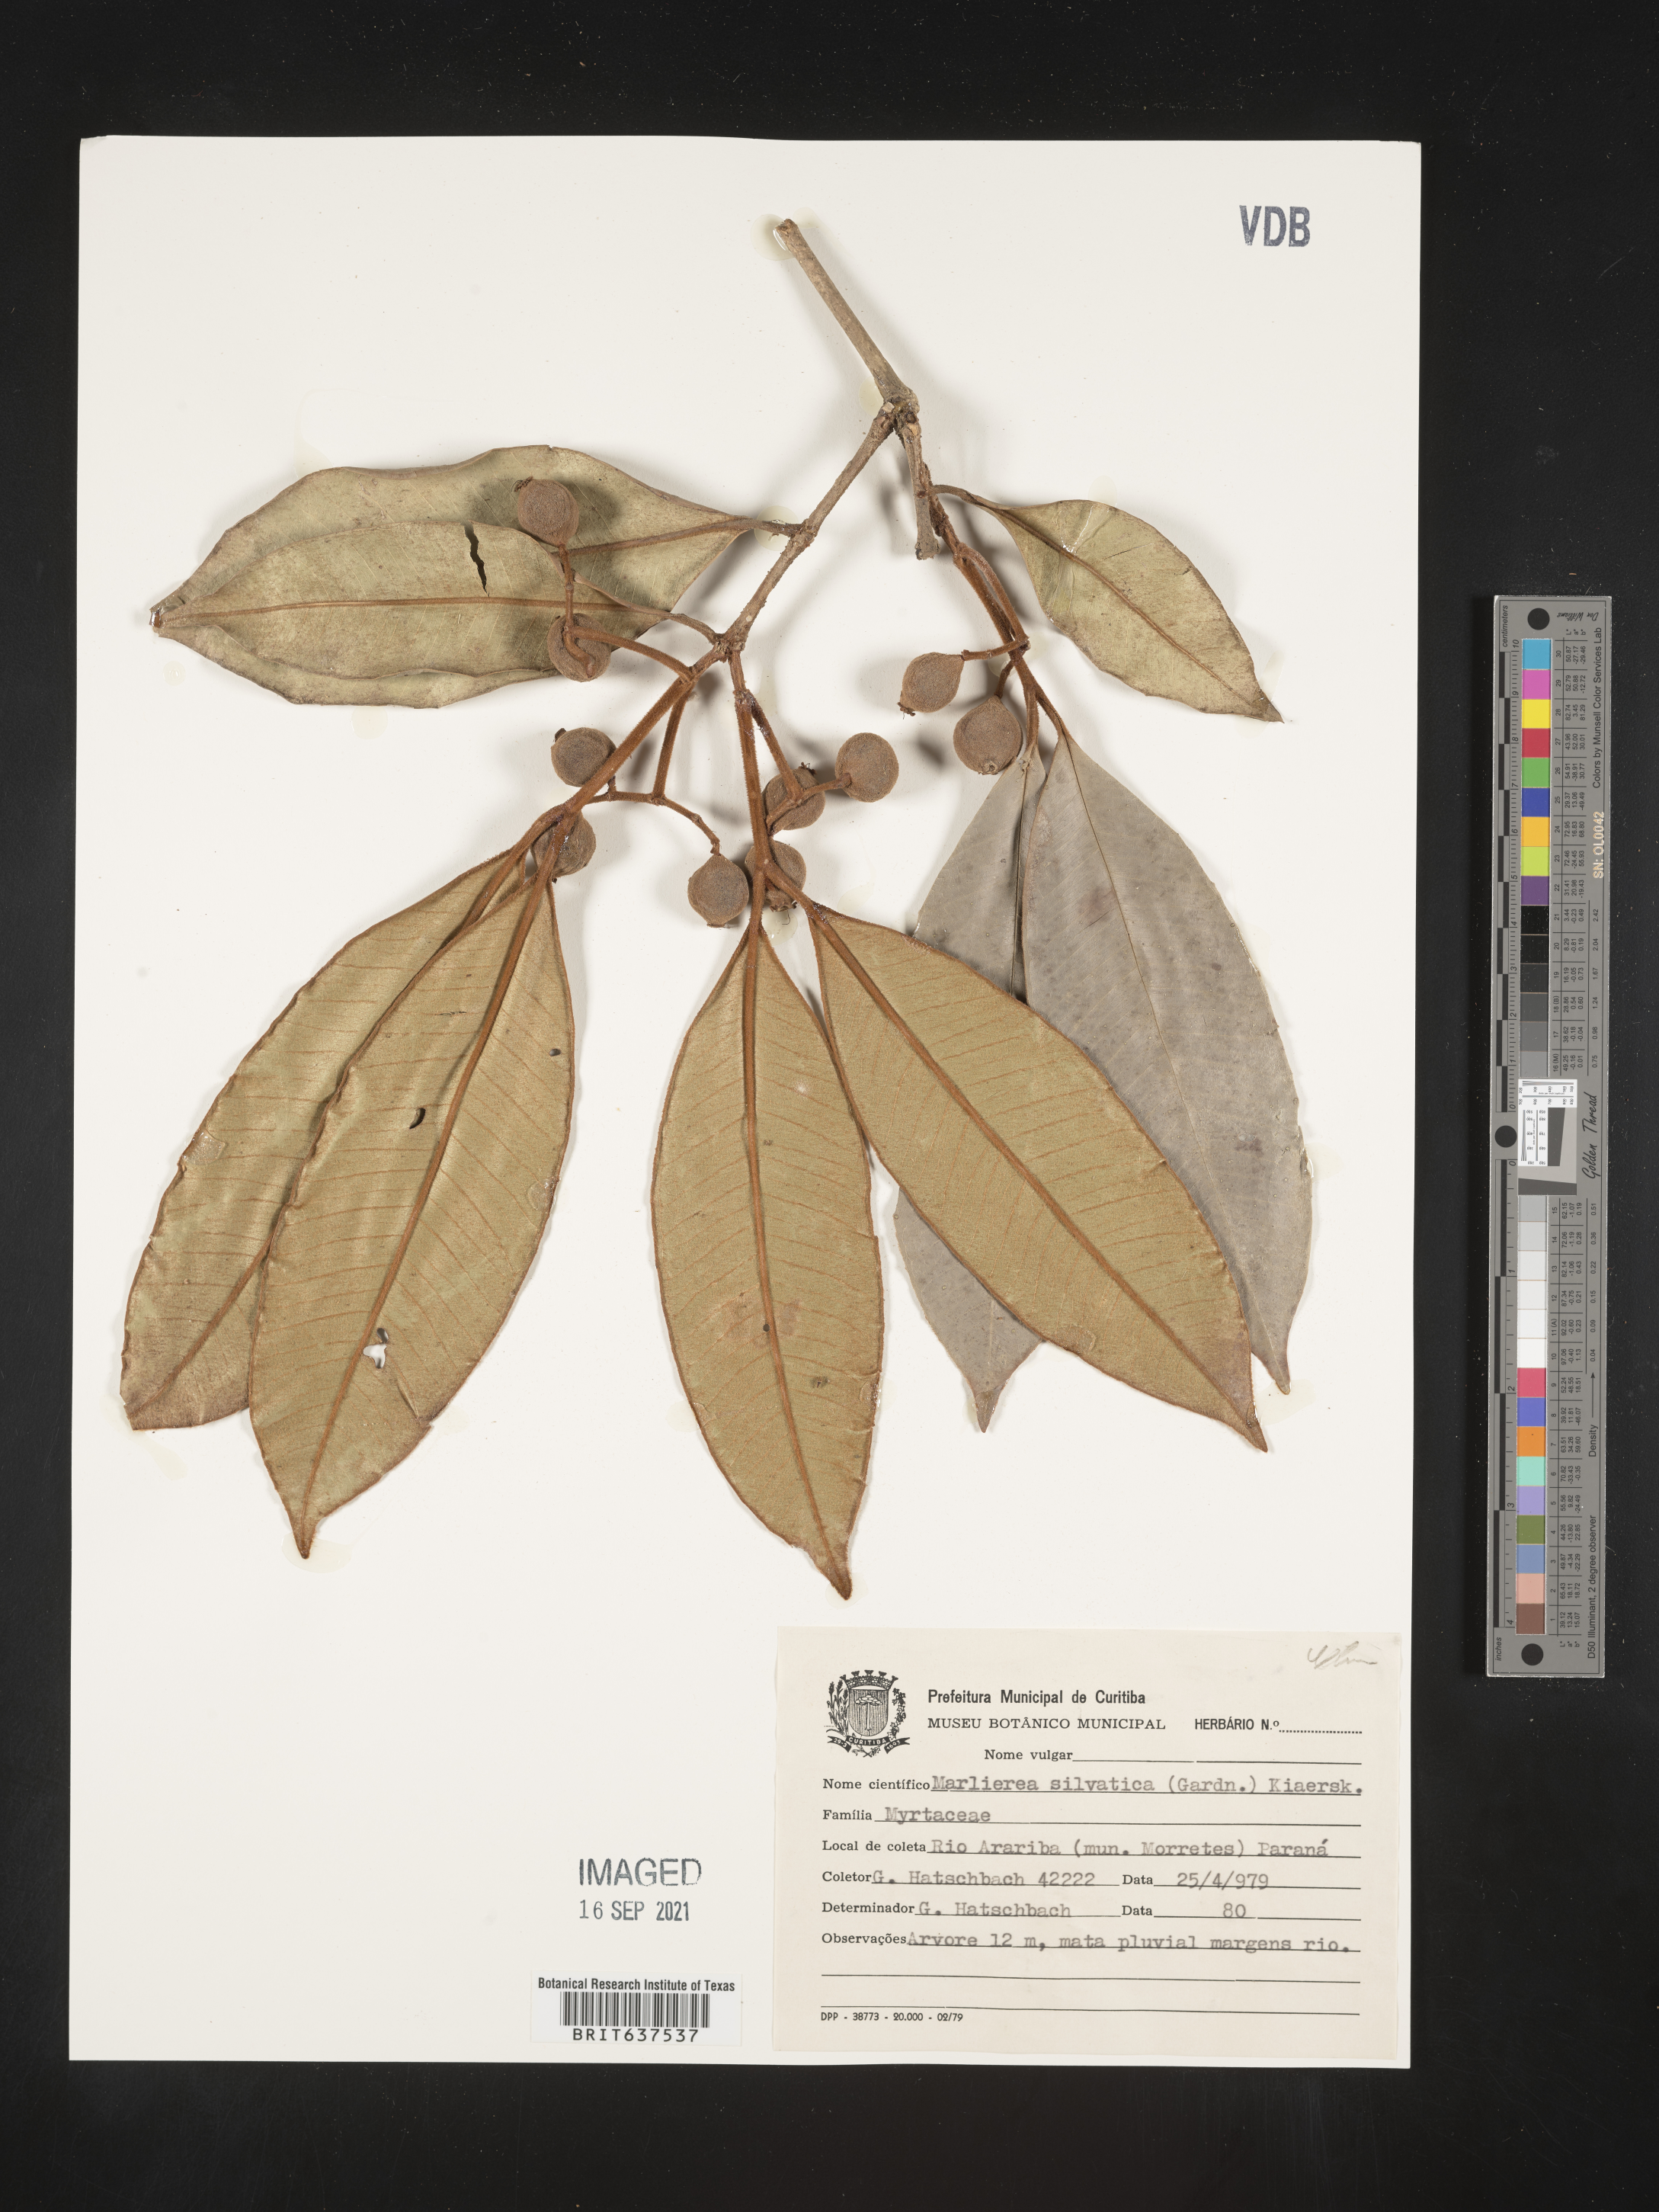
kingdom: Plantae
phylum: Tracheophyta
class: Magnoliopsida
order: Myrtales
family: Myrtaceae
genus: Marlierea
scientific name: Marlierea
